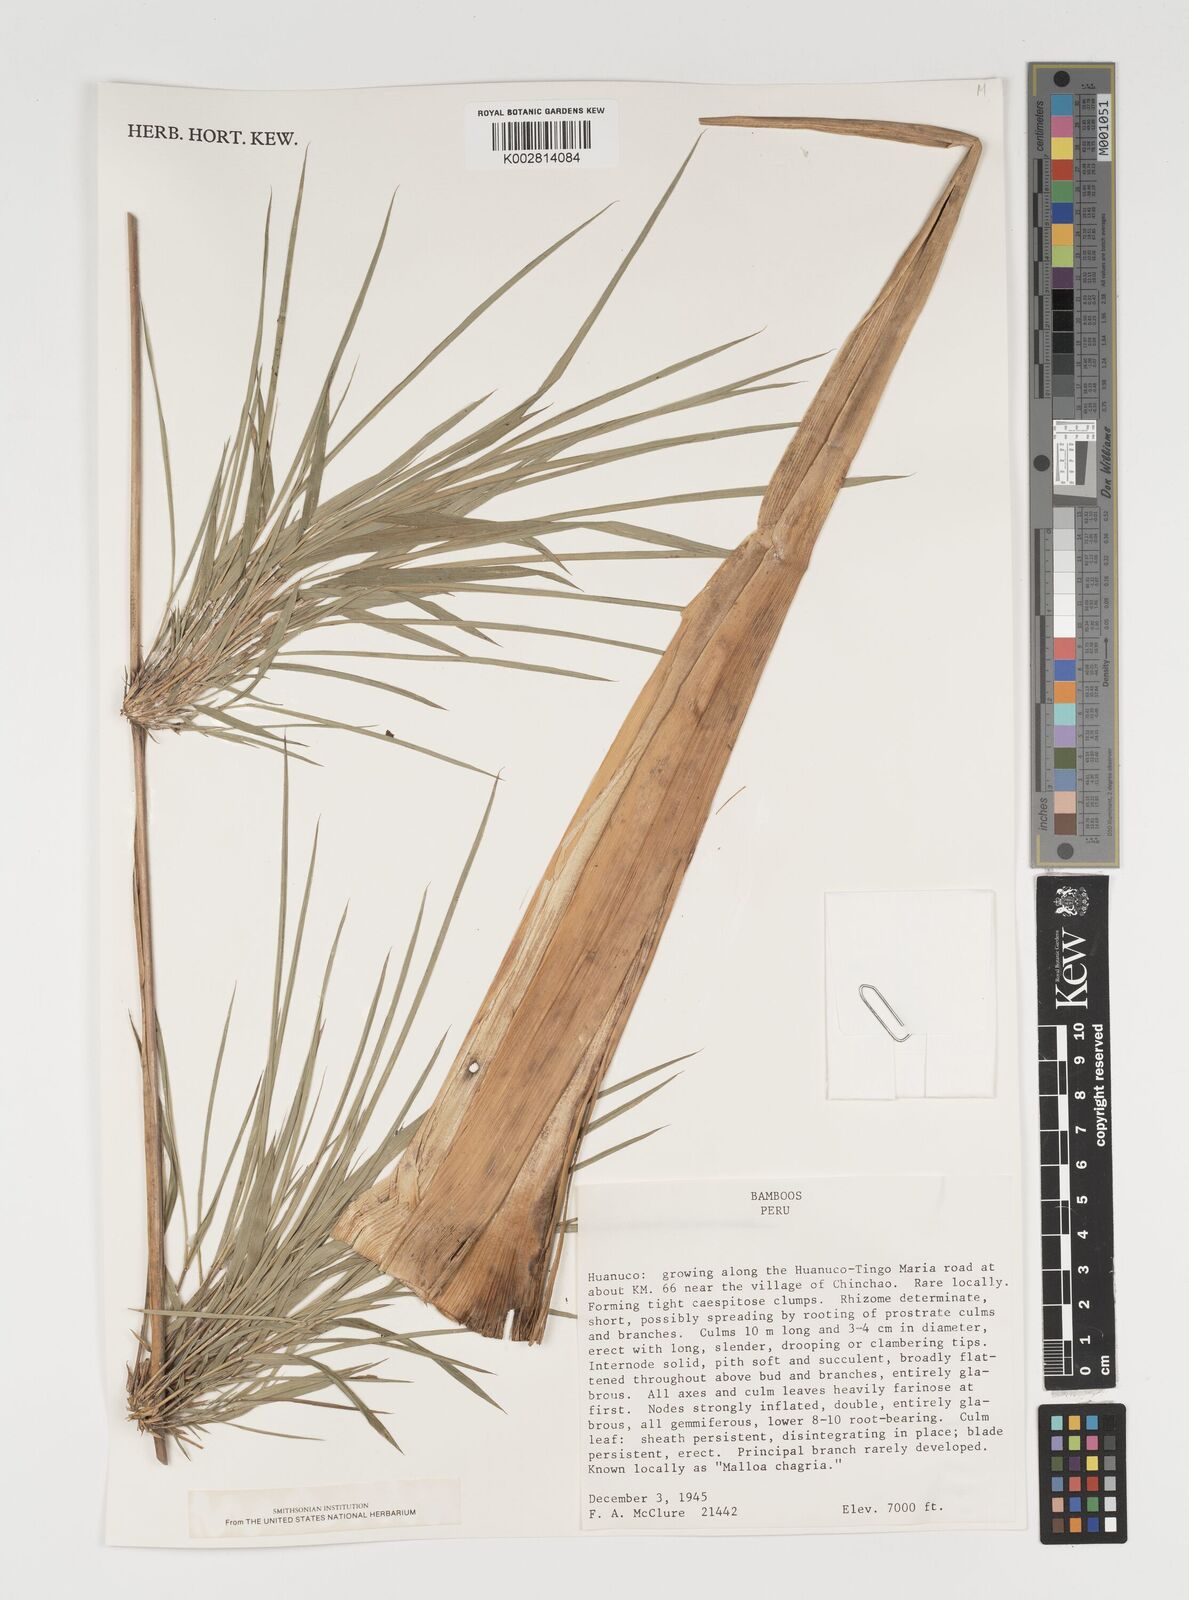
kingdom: Plantae
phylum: Tracheophyta
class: Liliopsida
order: Poales
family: Poaceae
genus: Chusquea
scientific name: Chusquea
